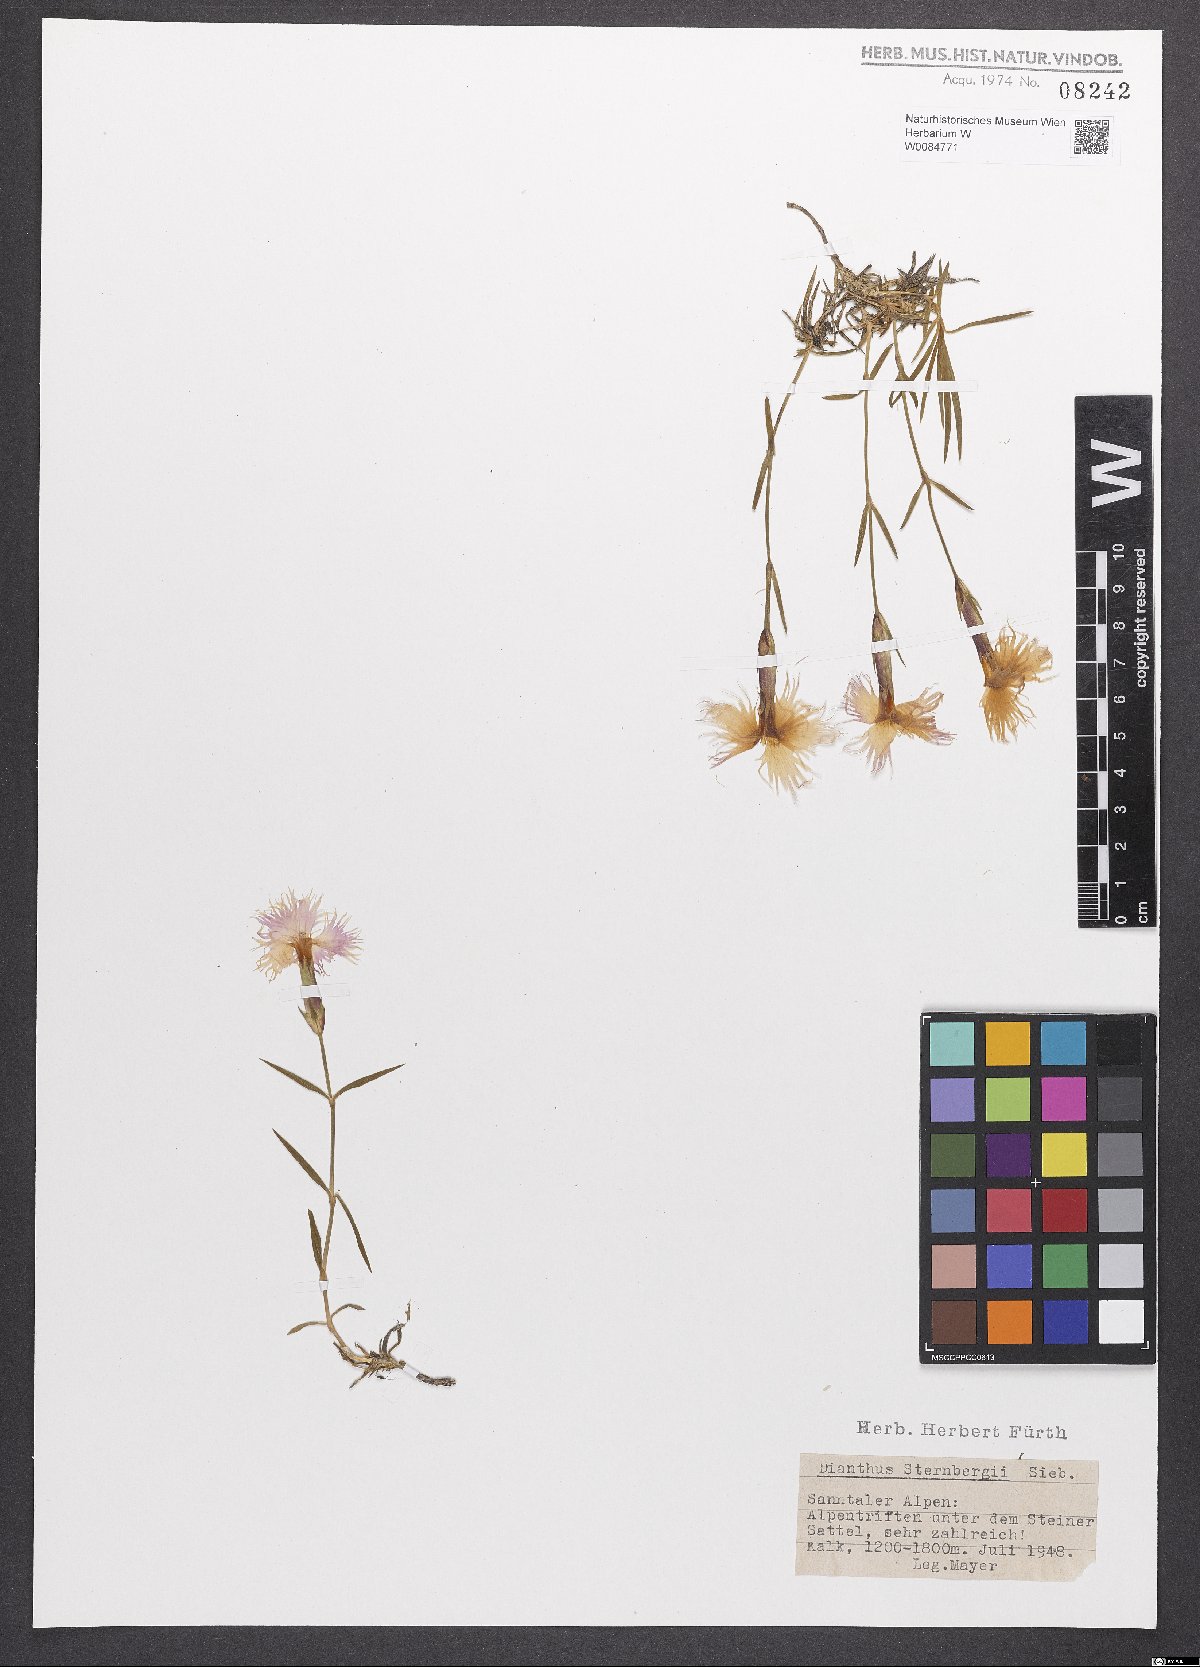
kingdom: Plantae
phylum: Tracheophyta
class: Magnoliopsida
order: Caryophyllales
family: Caryophyllaceae
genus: Dianthus
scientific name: Dianthus monspessulanus
